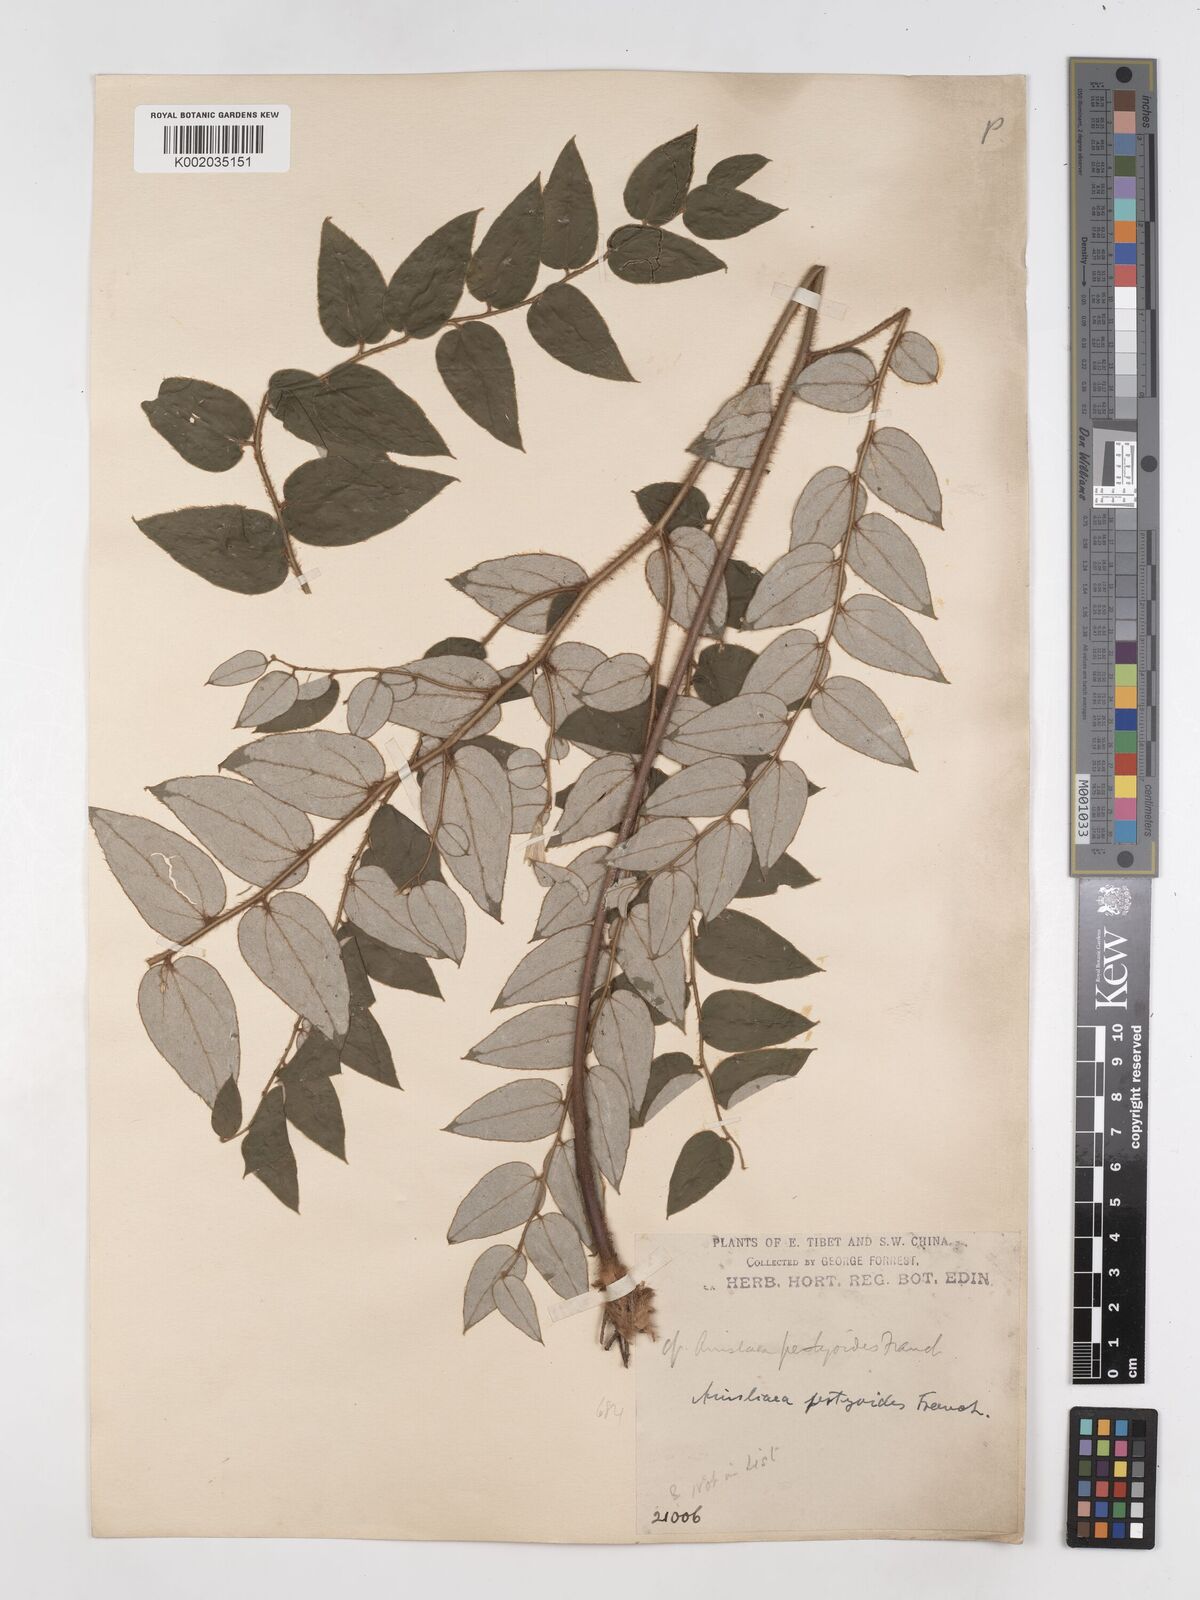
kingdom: Plantae
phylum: Tracheophyta
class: Magnoliopsida
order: Asterales
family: Asteraceae
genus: Ainsliaea
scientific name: Ainsliaea pertyoides
